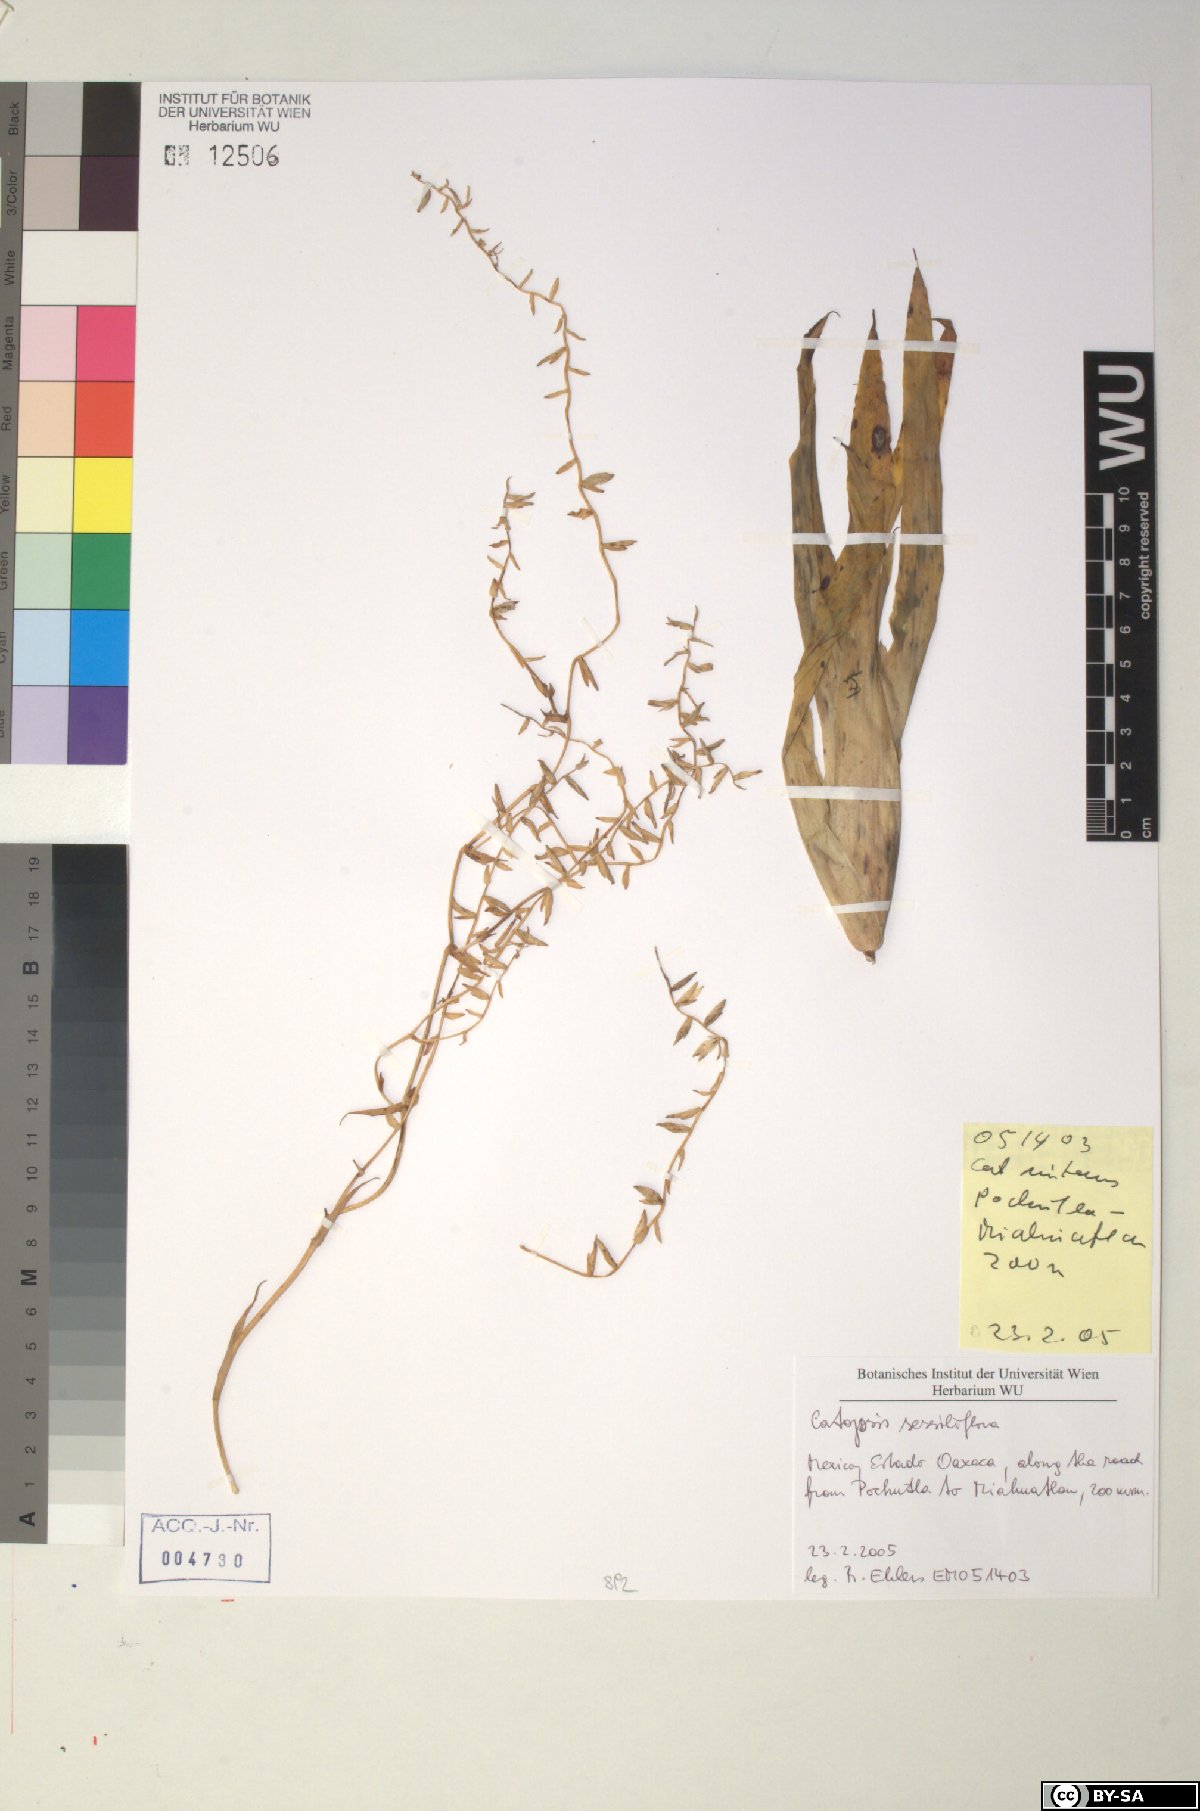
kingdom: Plantae
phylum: Tracheophyta
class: Liliopsida
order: Poales
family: Bromeliaceae
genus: Catopsis
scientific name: Catopsis sessiliflora
